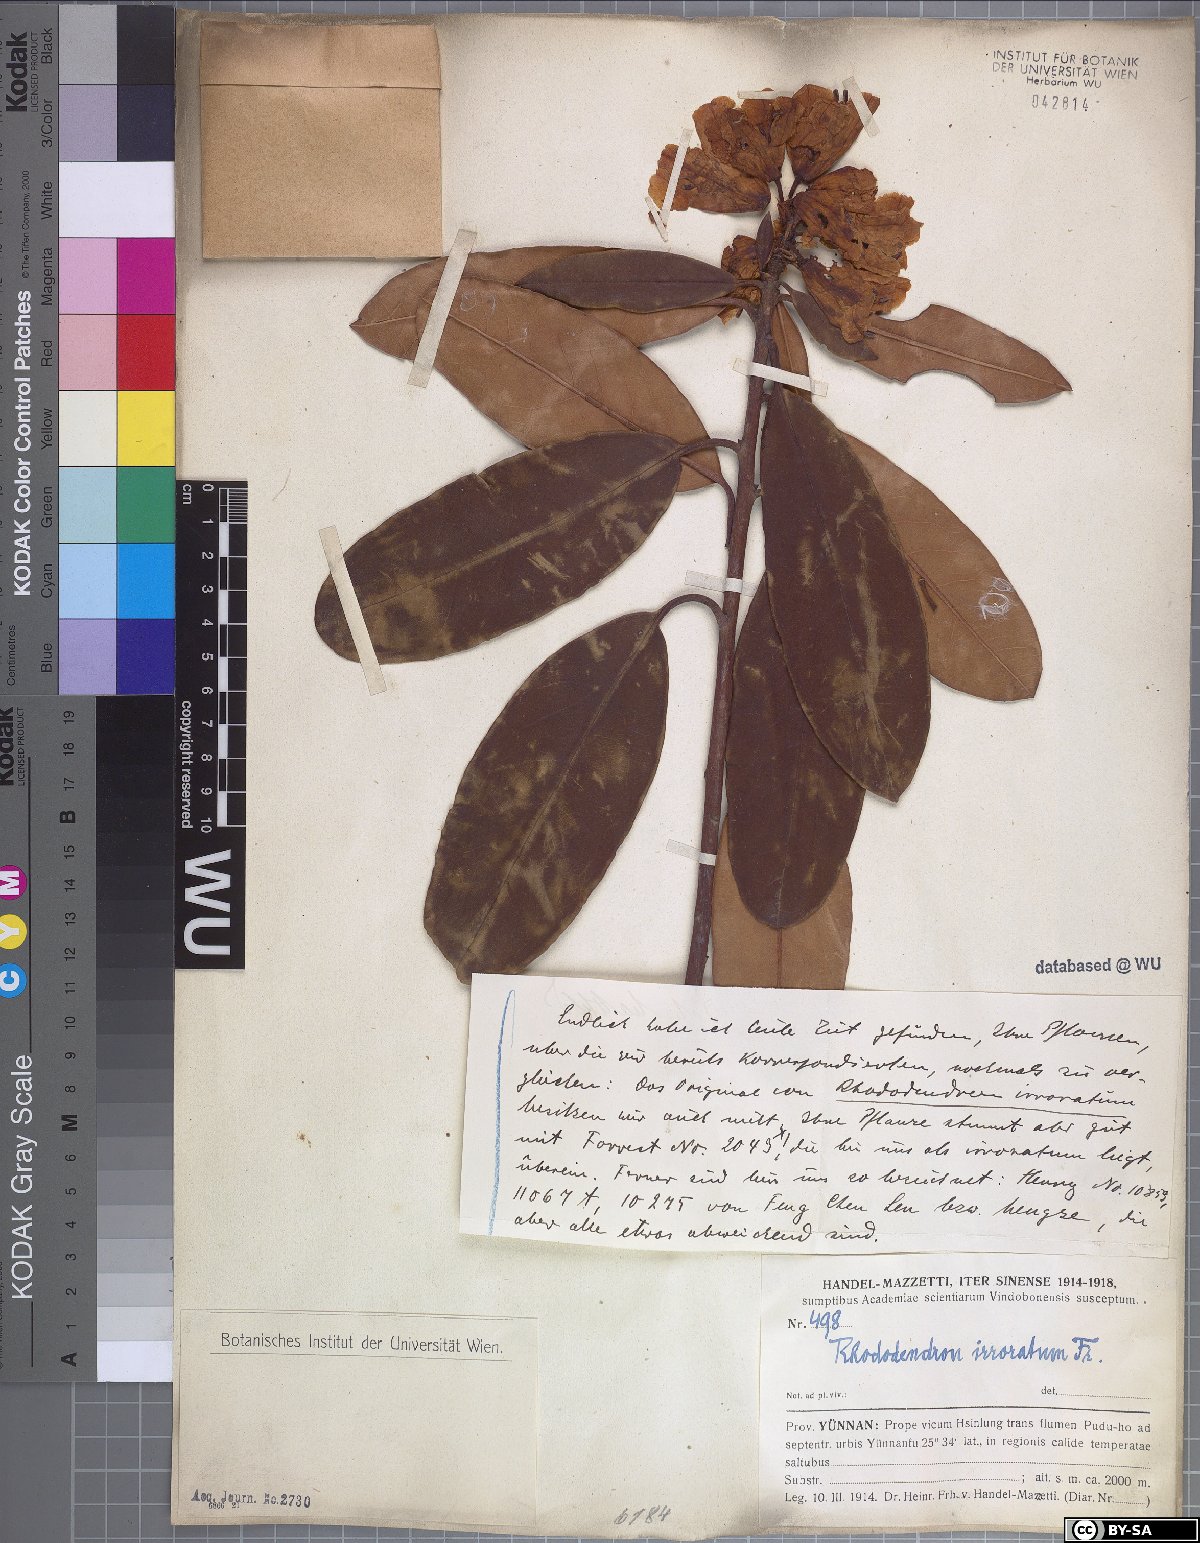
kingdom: Plantae
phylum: Tracheophyta
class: Magnoliopsida
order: Ericales
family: Ericaceae
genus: Rhododendron
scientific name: Rhododendron irroratum
